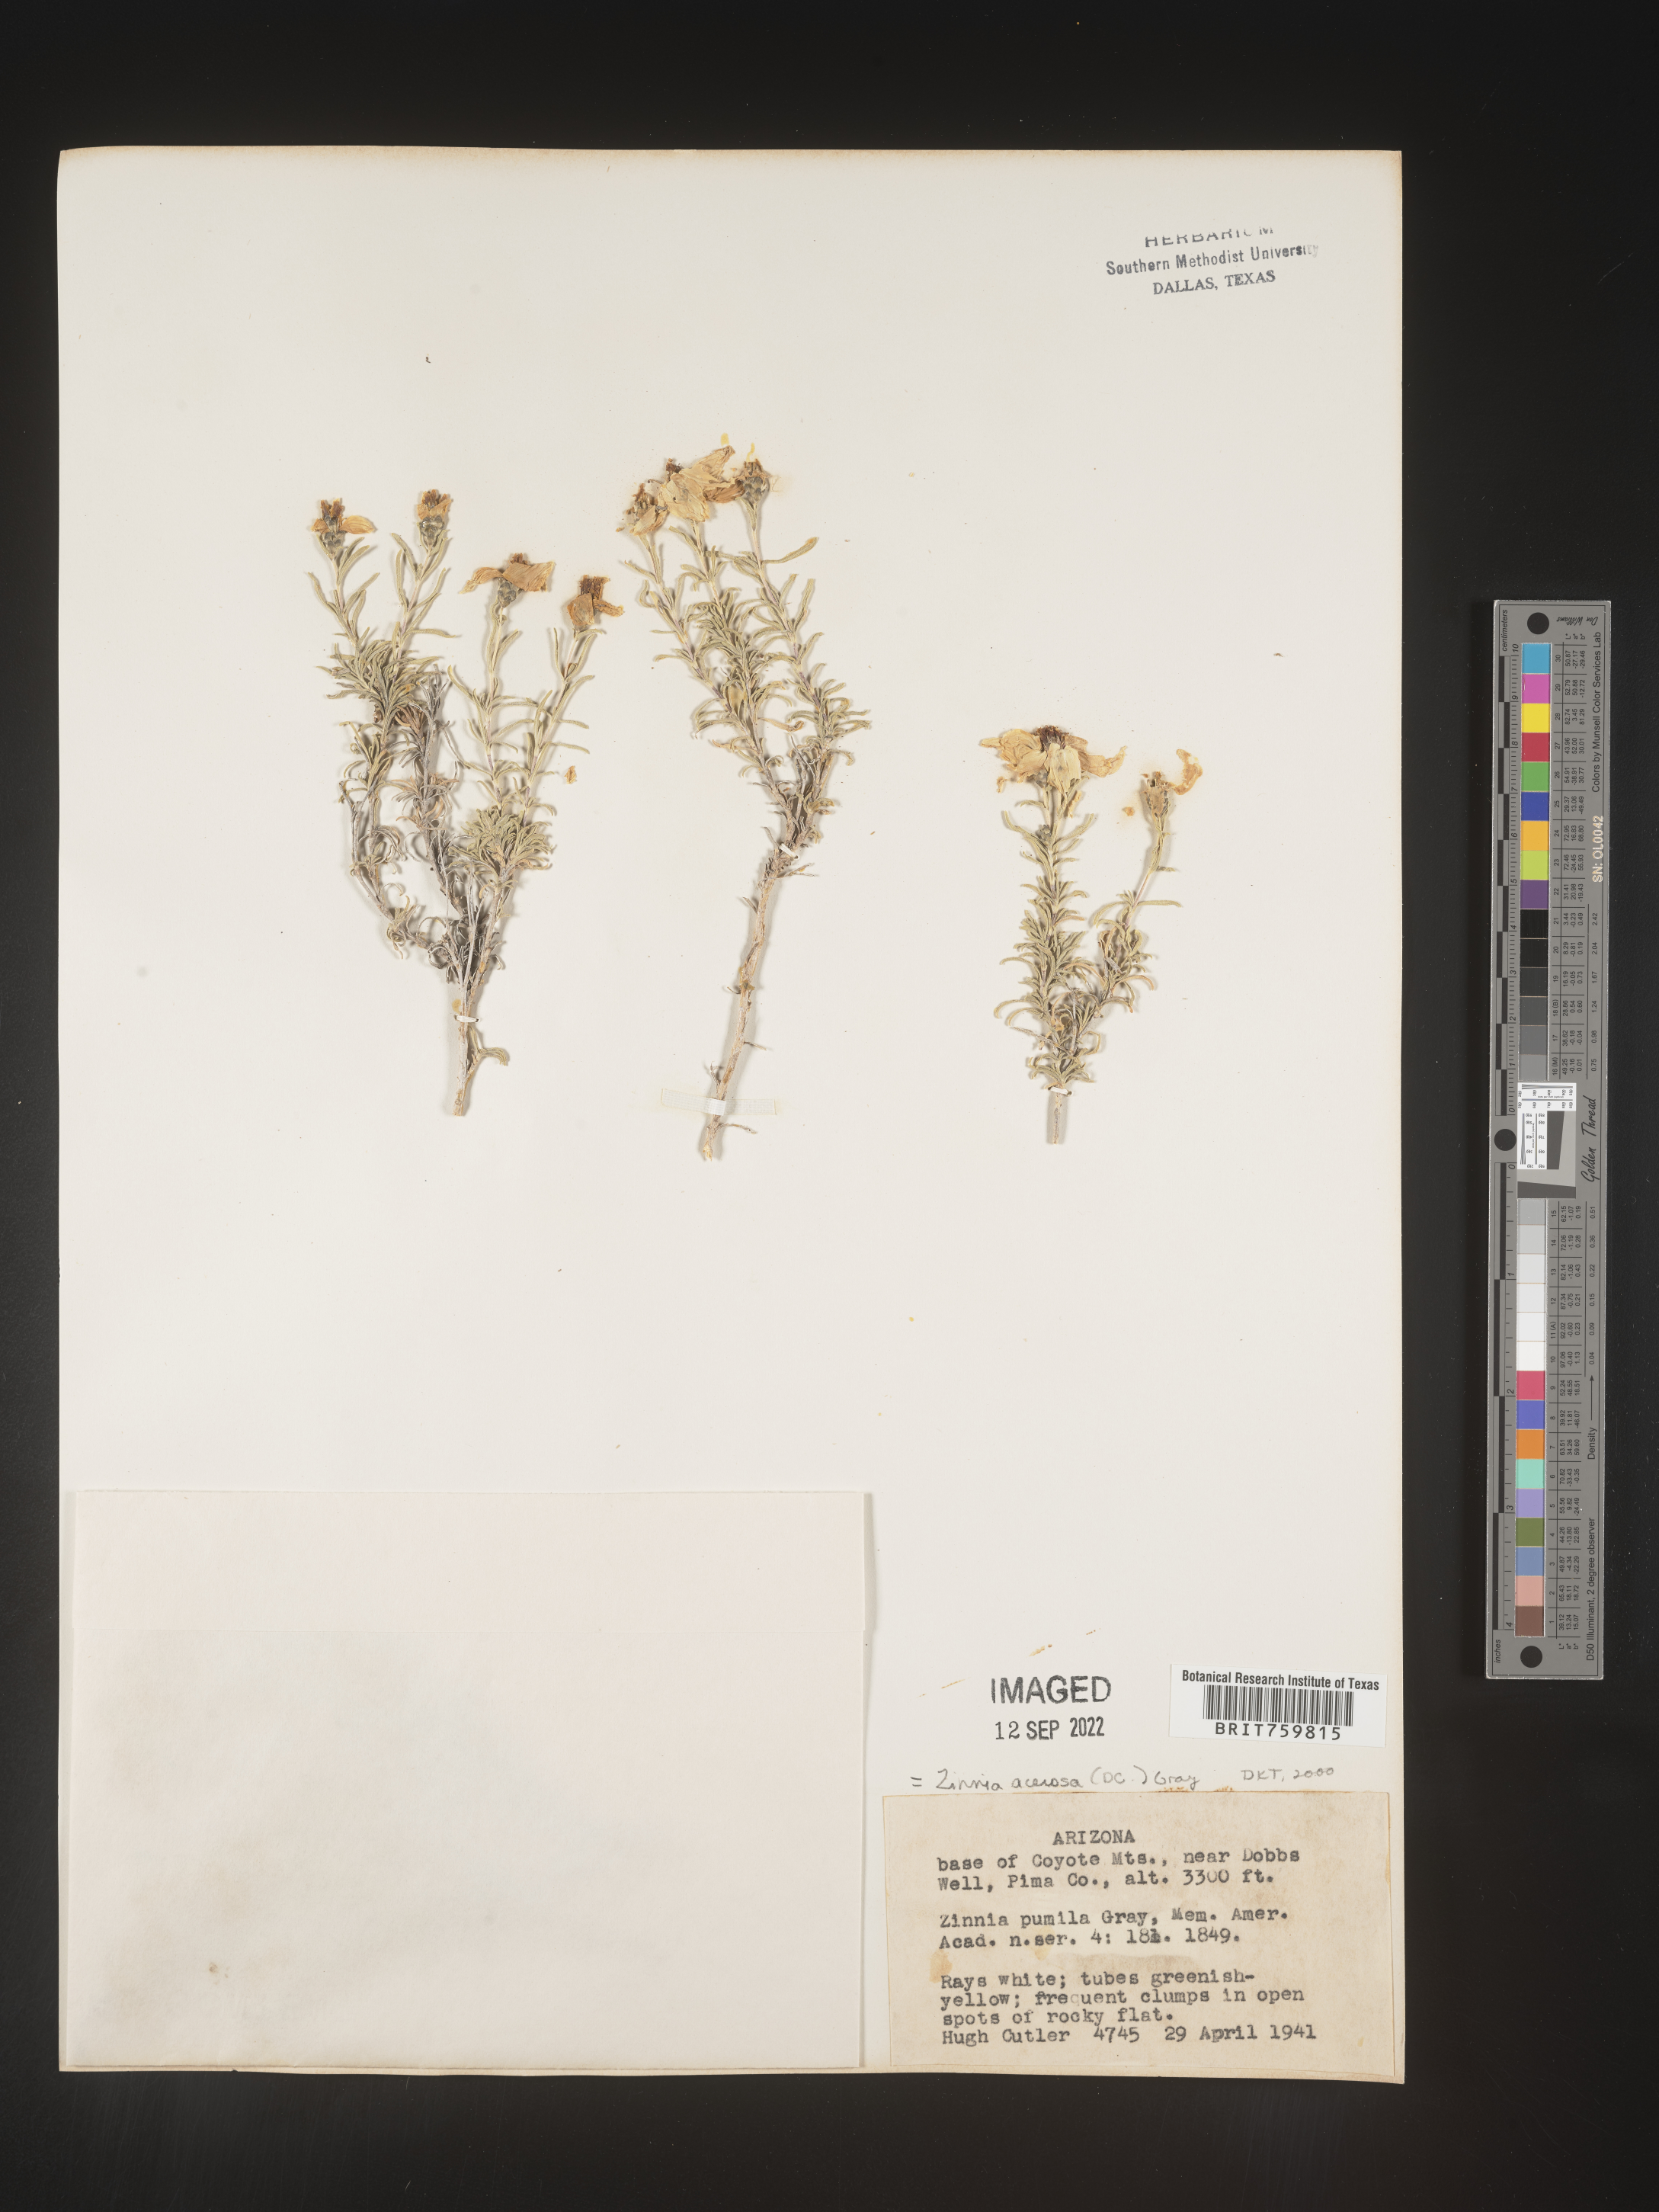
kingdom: Plantae
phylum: Tracheophyta
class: Magnoliopsida
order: Asterales
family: Asteraceae
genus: Zinnia
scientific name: Zinnia
